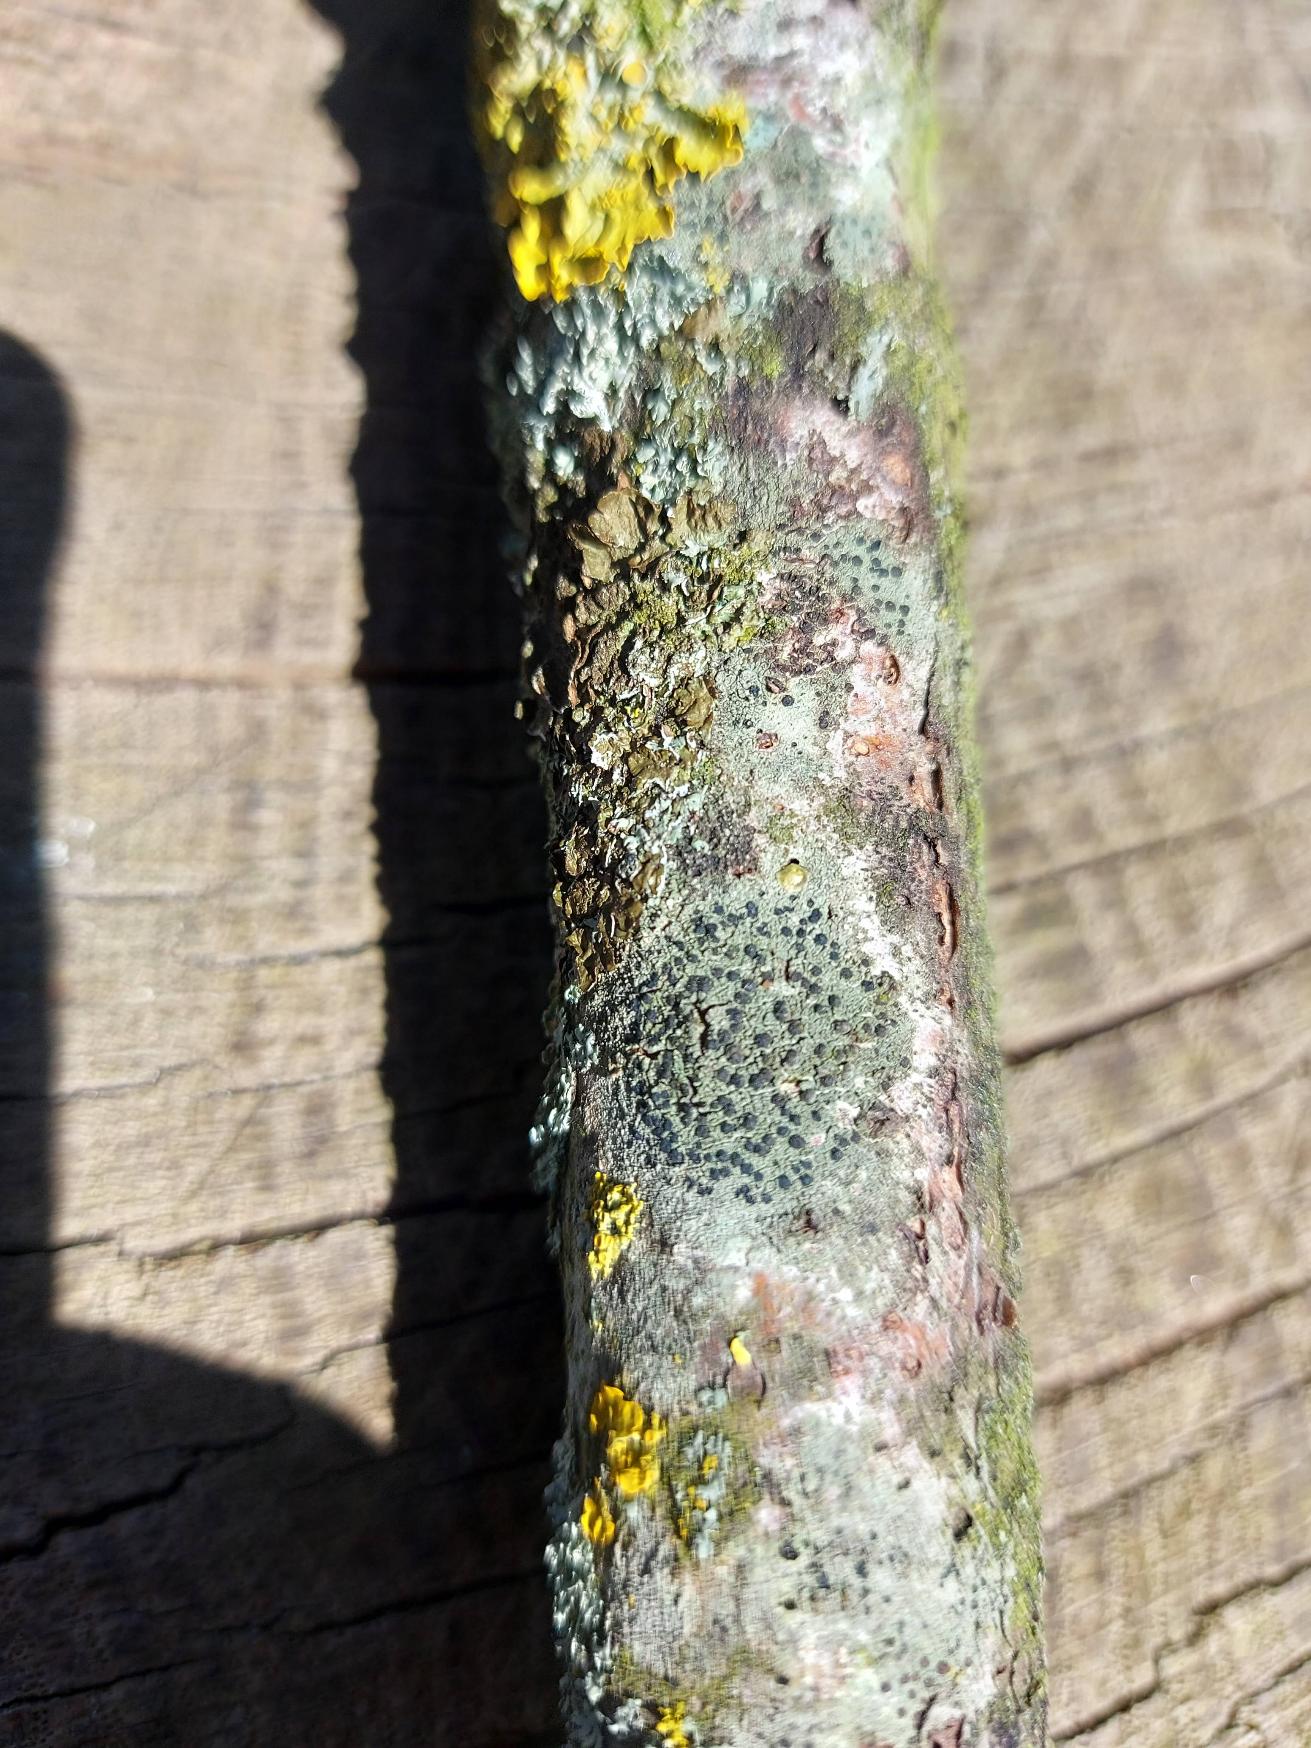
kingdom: Fungi
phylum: Ascomycota
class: Lecanoromycetes
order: Lecanorales
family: Lecanoraceae
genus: Lecidella
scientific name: Lecidella elaeochroma
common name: Grågrøn skivelav
